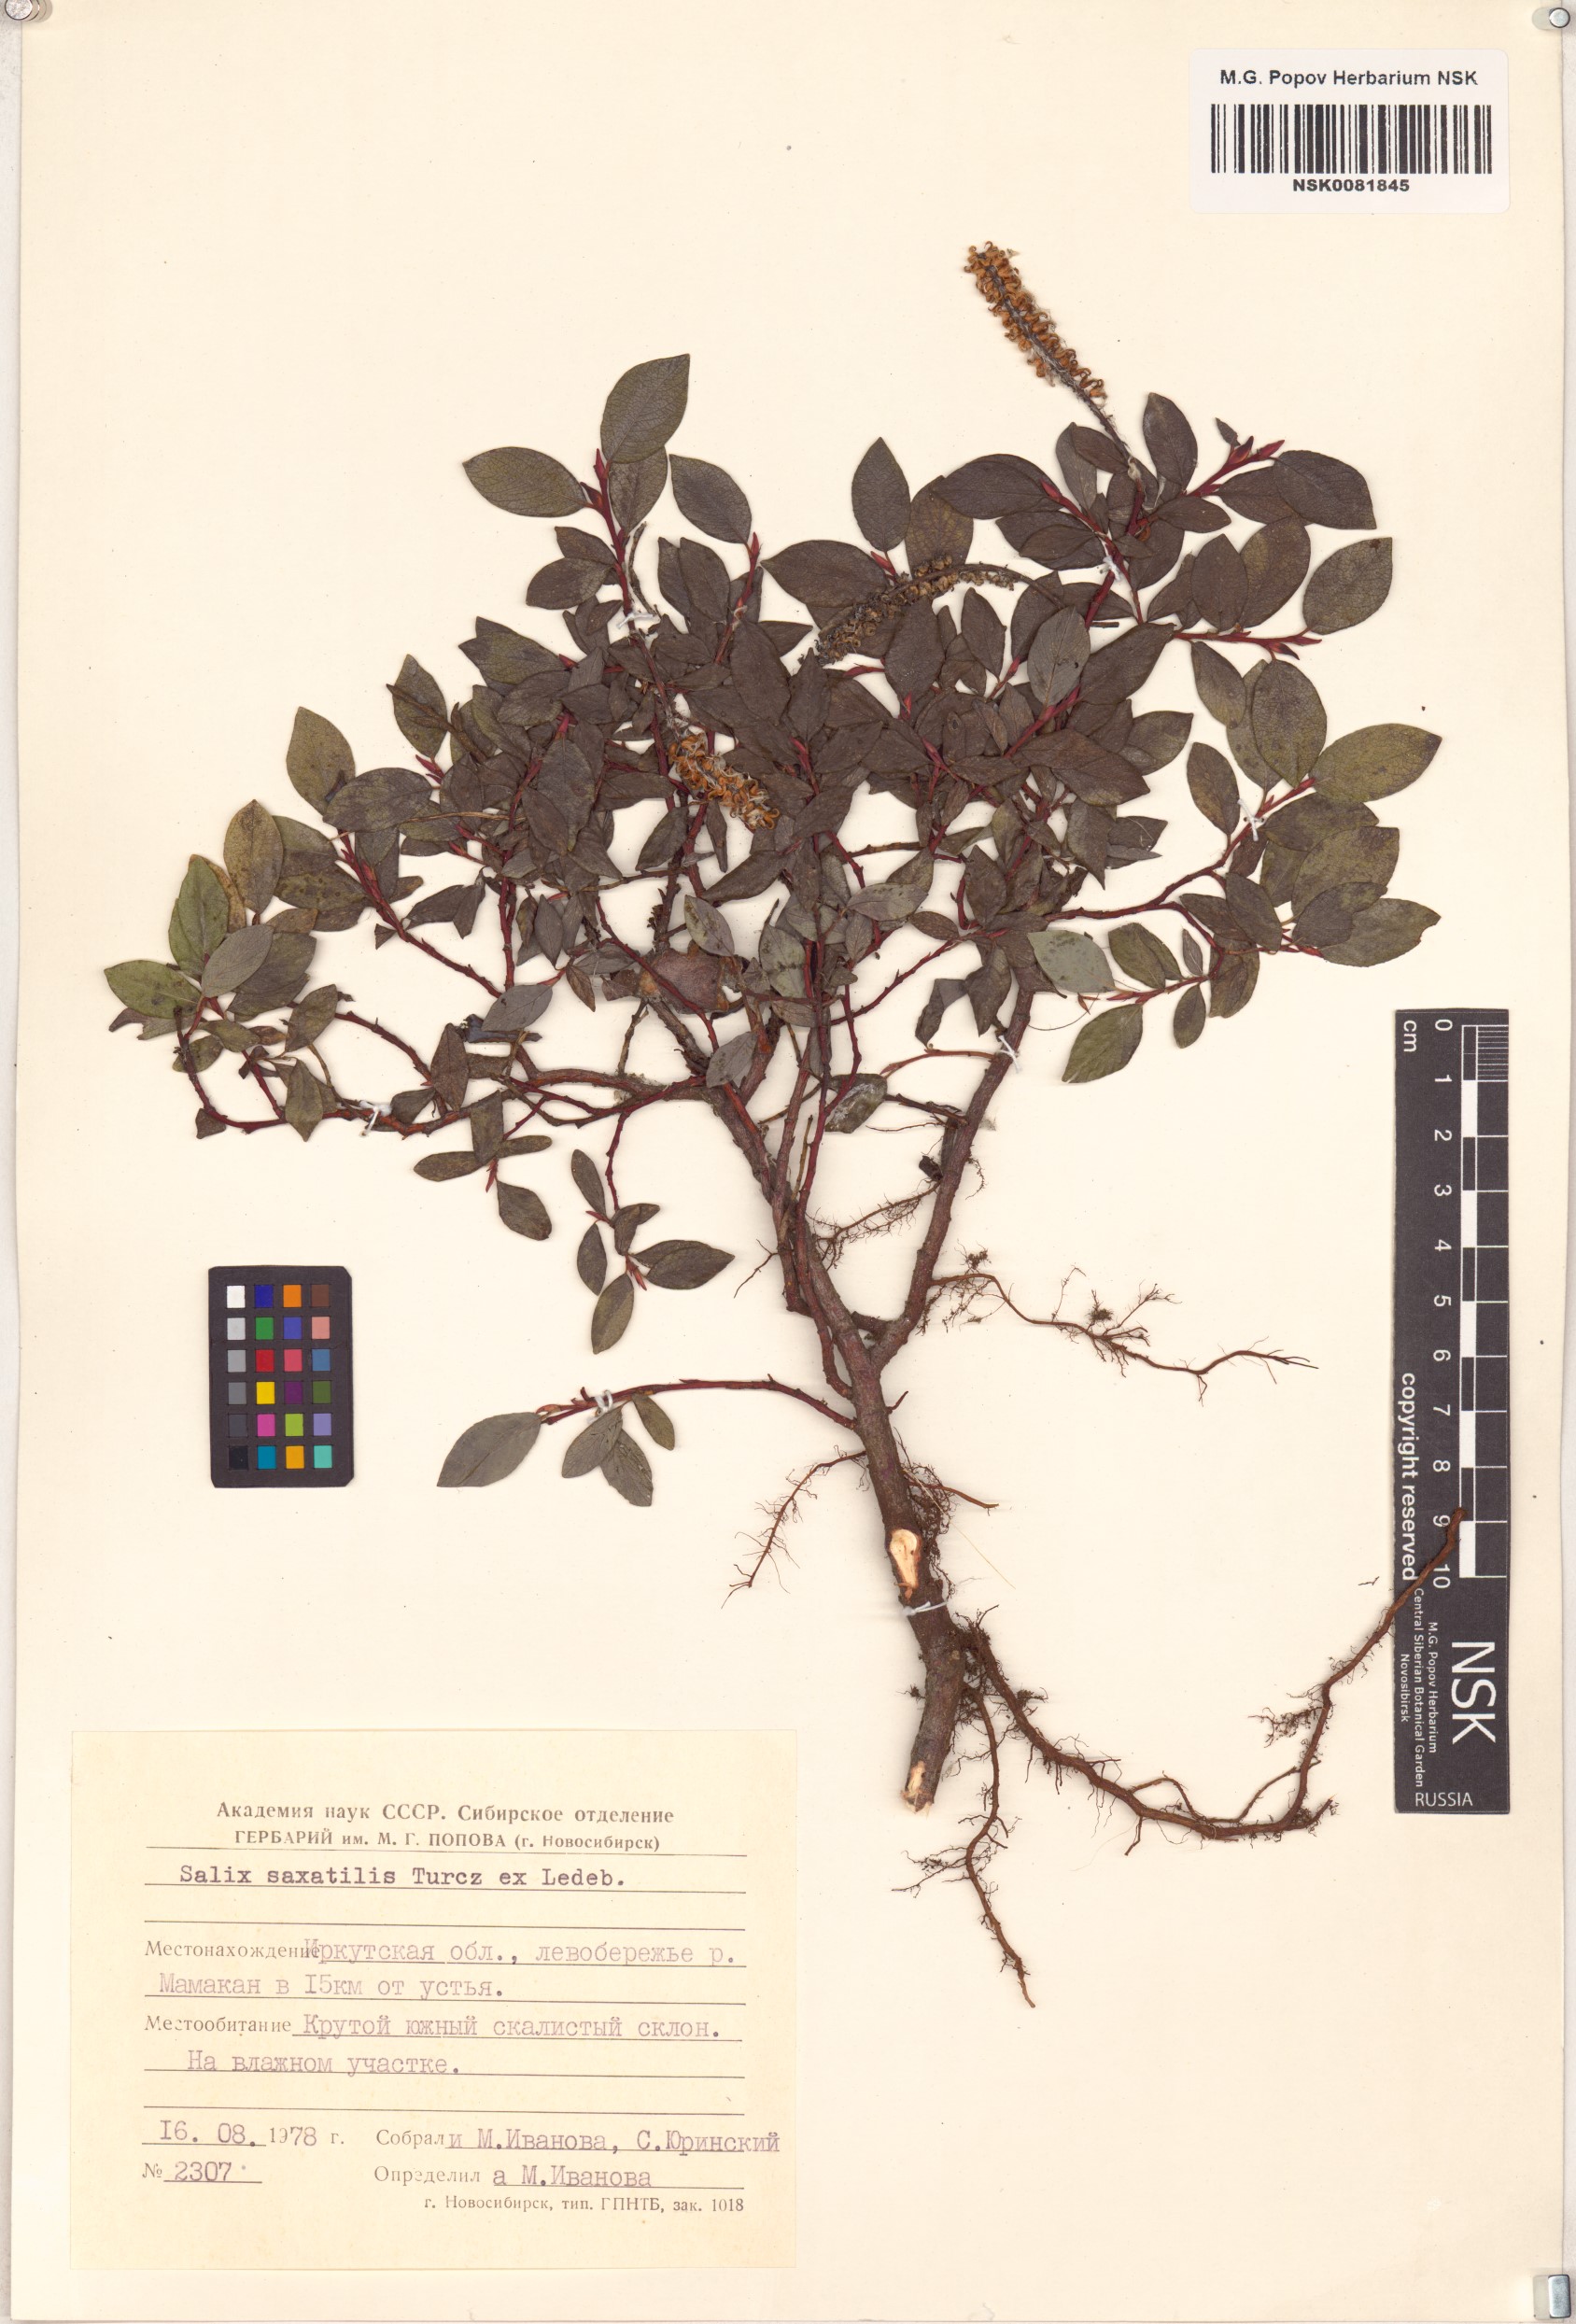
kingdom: Plantae
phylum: Tracheophyta
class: Magnoliopsida
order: Malpighiales
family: Salicaceae
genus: Salix
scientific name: Salix saxatilis
